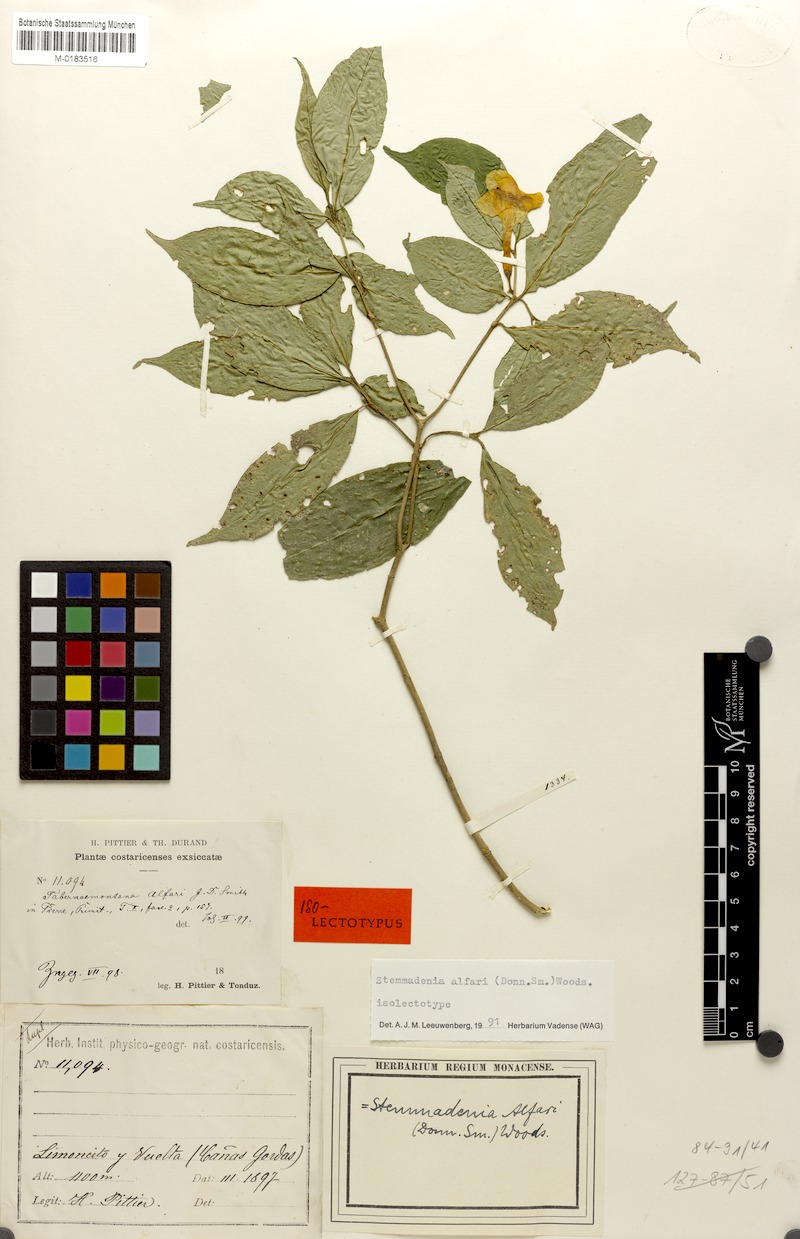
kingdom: Plantae
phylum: Tracheophyta
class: Magnoliopsida
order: Gentianales
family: Apocynaceae
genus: Tabernaemontana
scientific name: Tabernaemontana alfari
